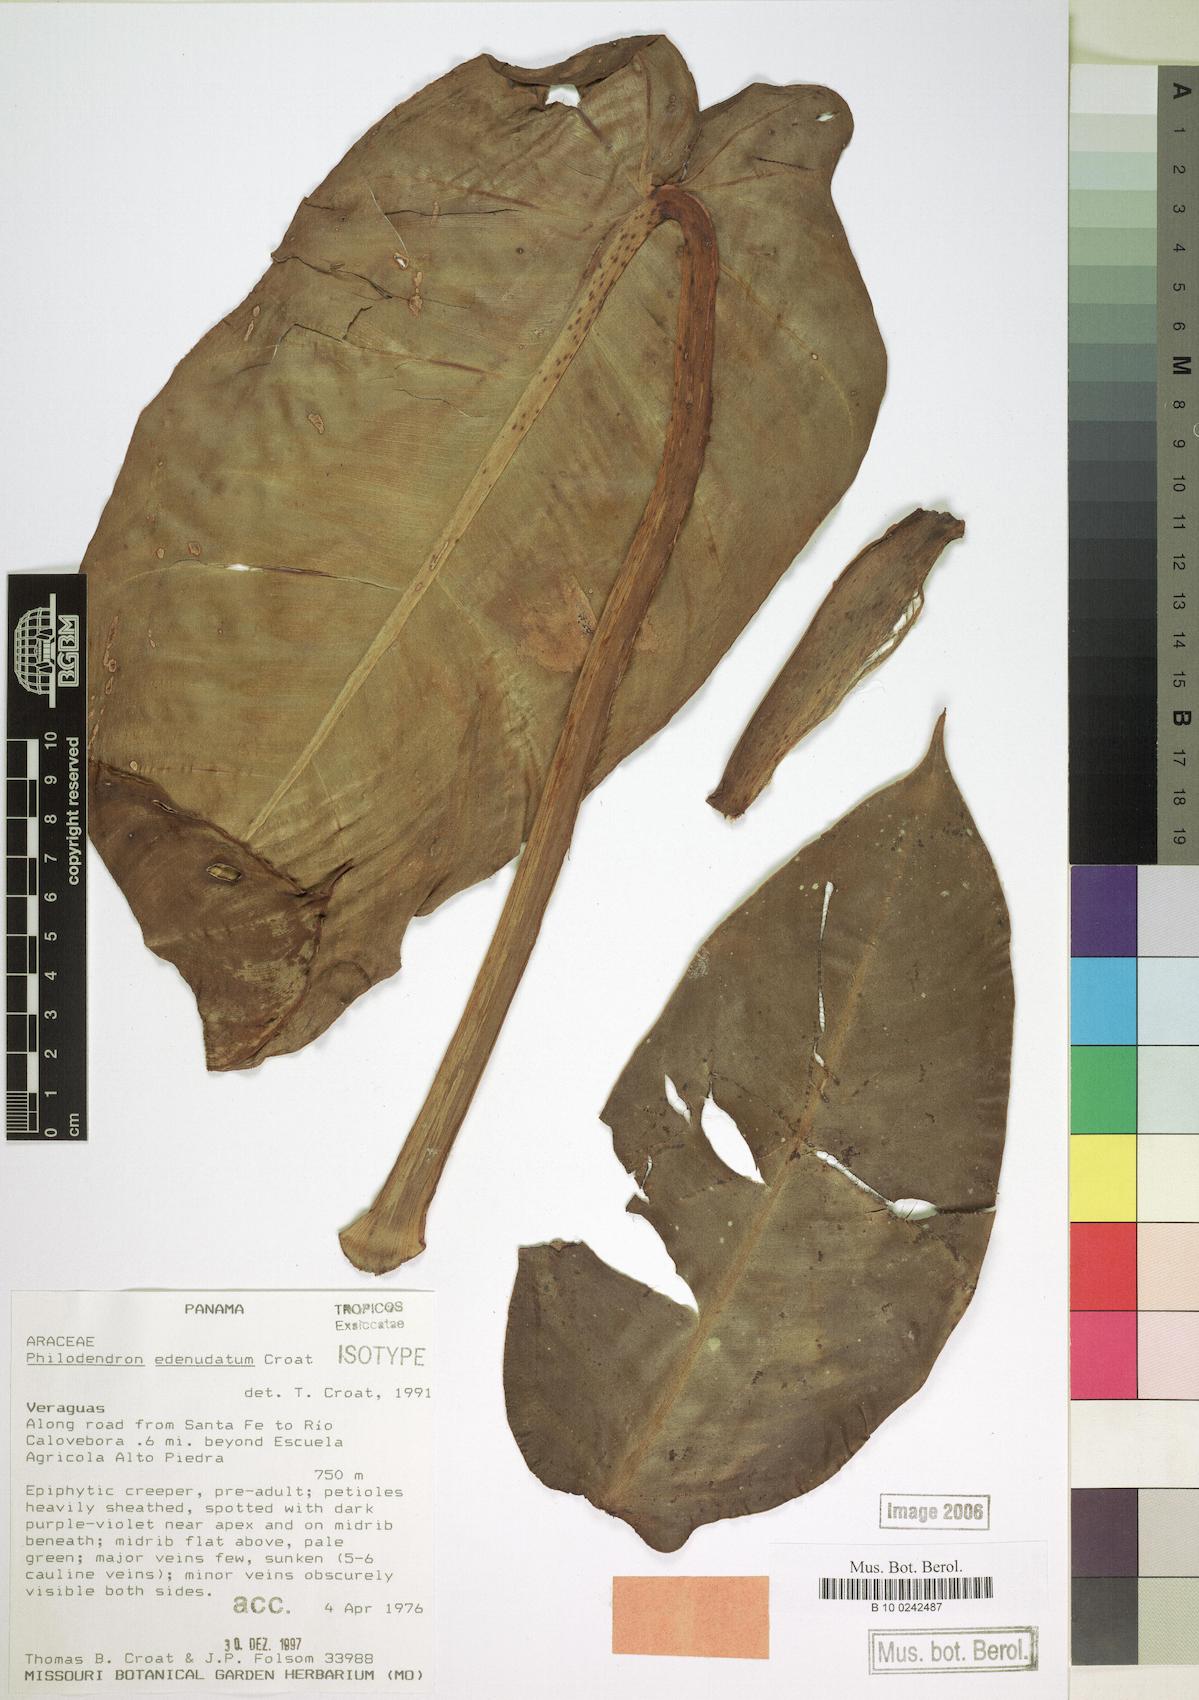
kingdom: Plantae
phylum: Tracheophyta
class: Liliopsida
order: Alismatales
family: Araceae
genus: Philodendron
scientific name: Philodendron edenudatum
